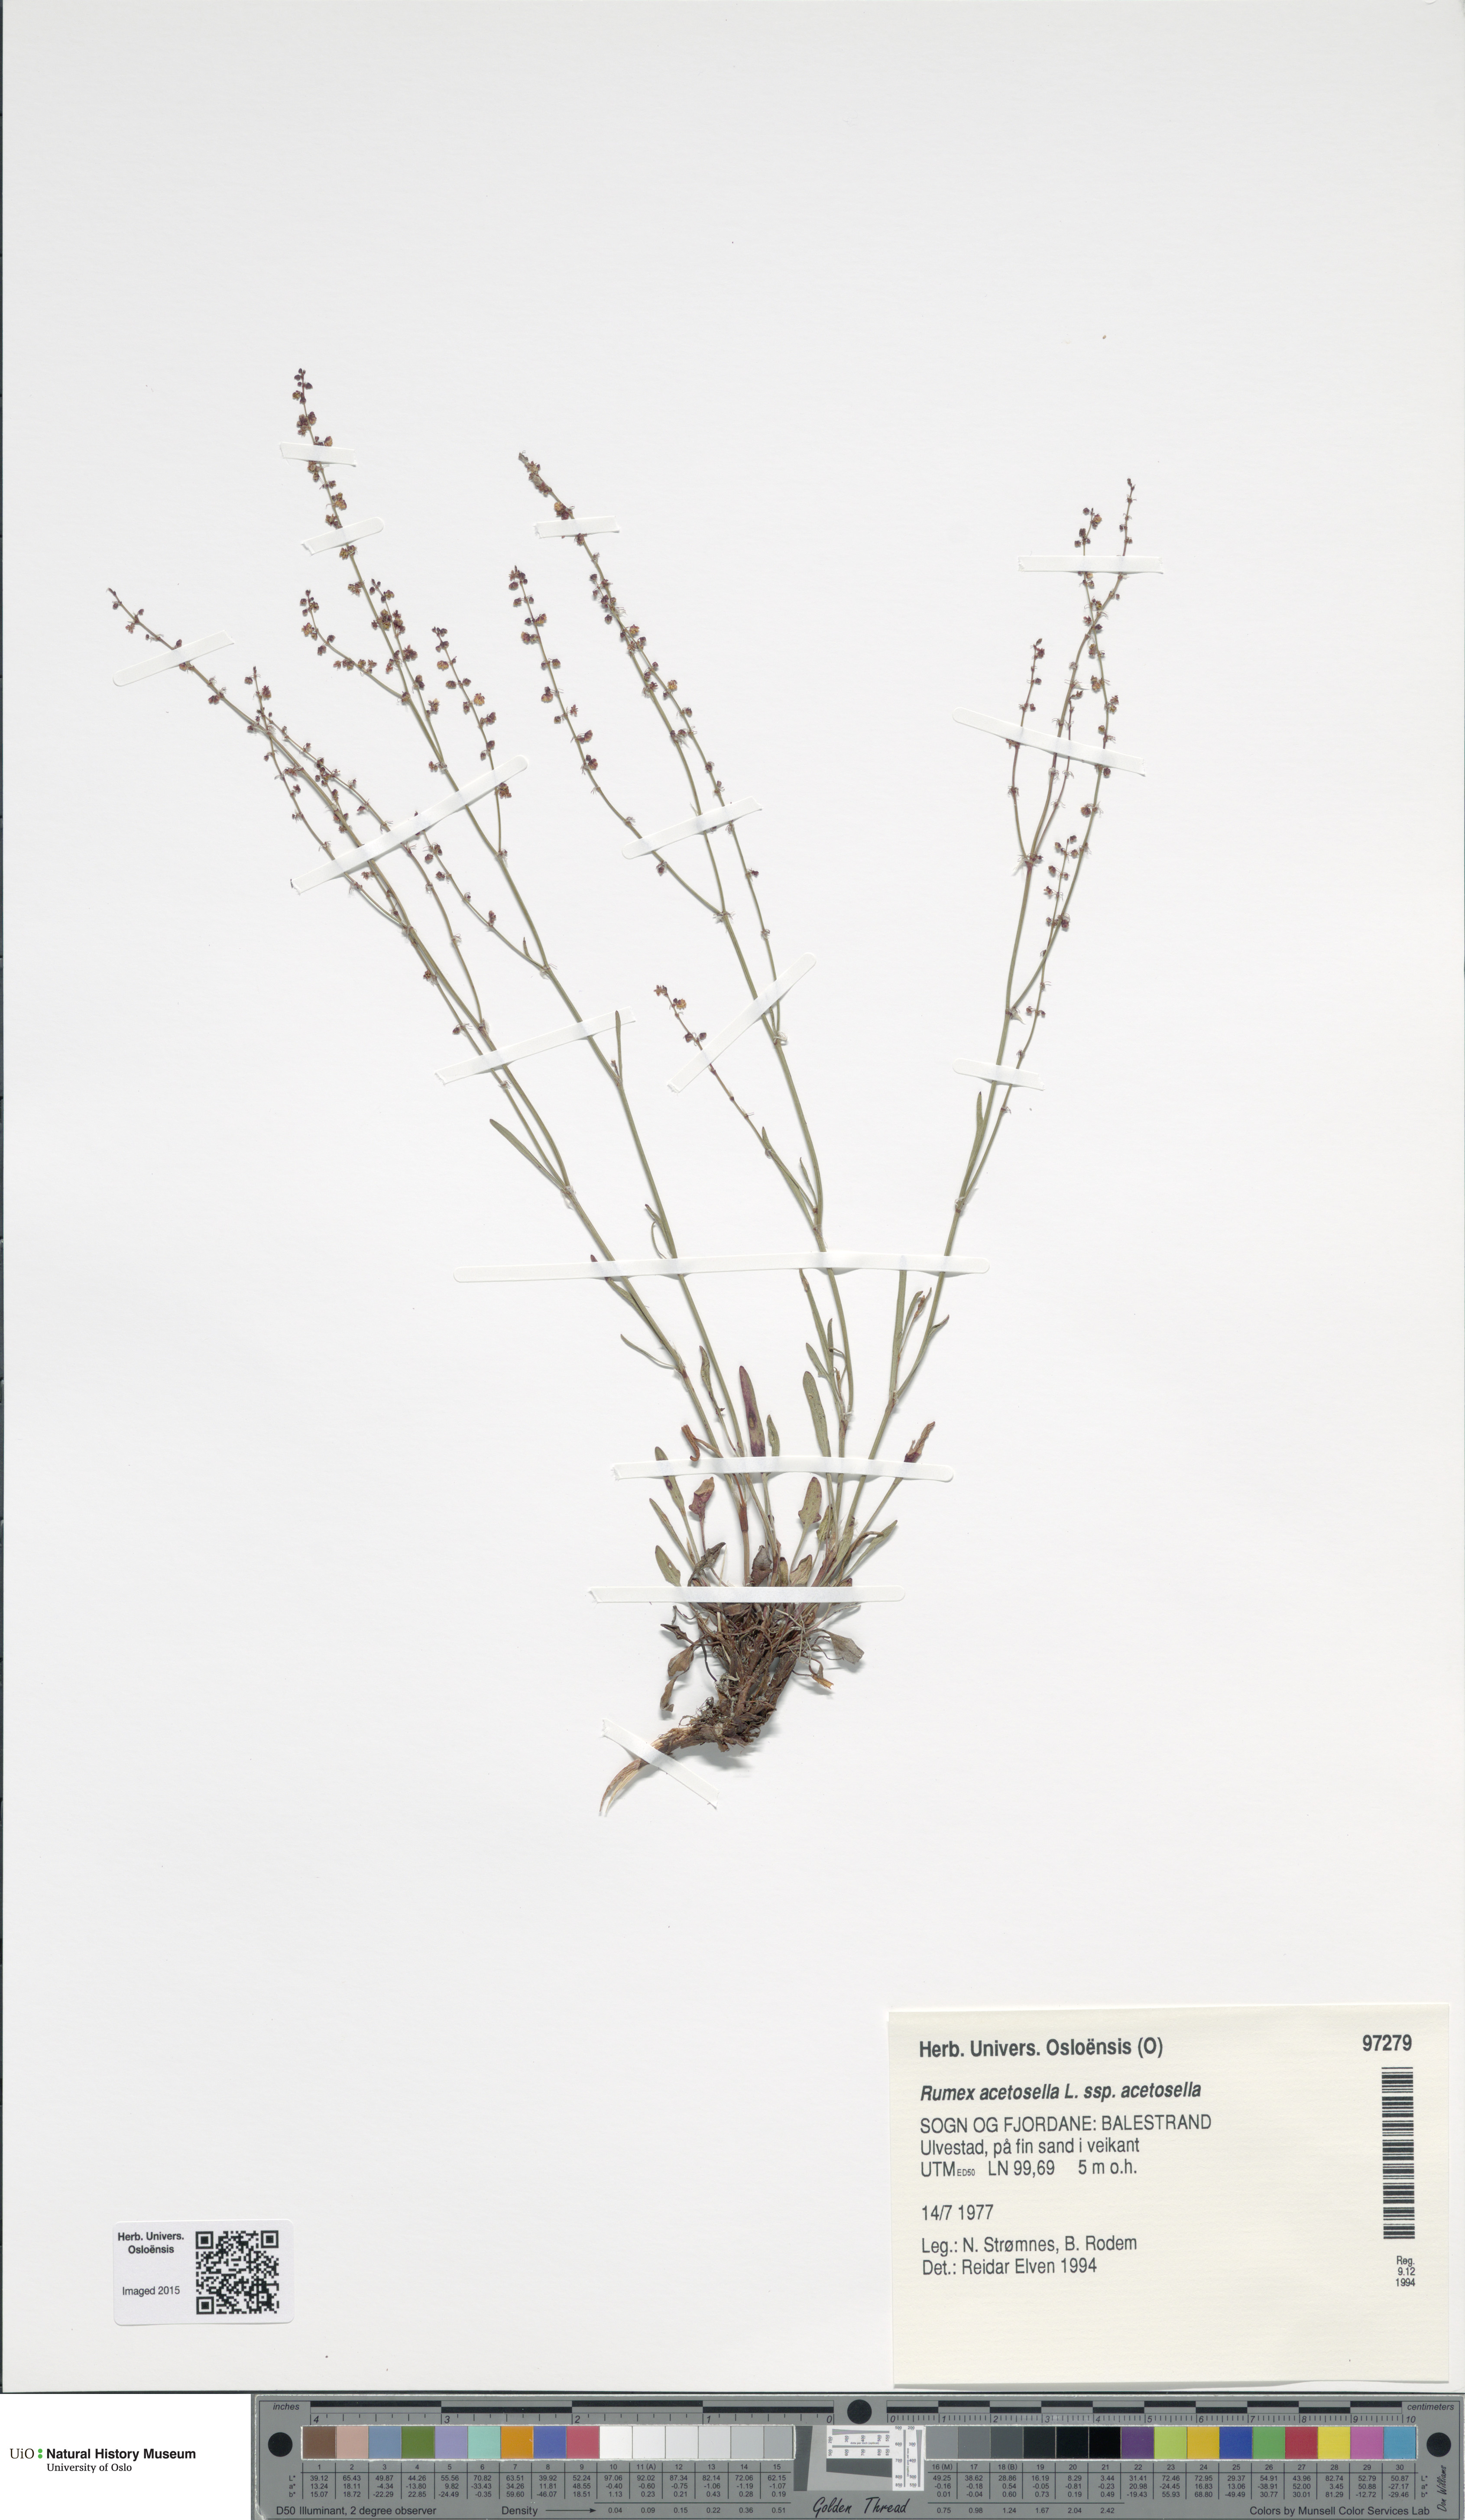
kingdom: Plantae
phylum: Tracheophyta
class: Magnoliopsida
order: Caryophyllales
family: Polygonaceae
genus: Rumex
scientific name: Rumex acetosella
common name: Common sheep sorrel
